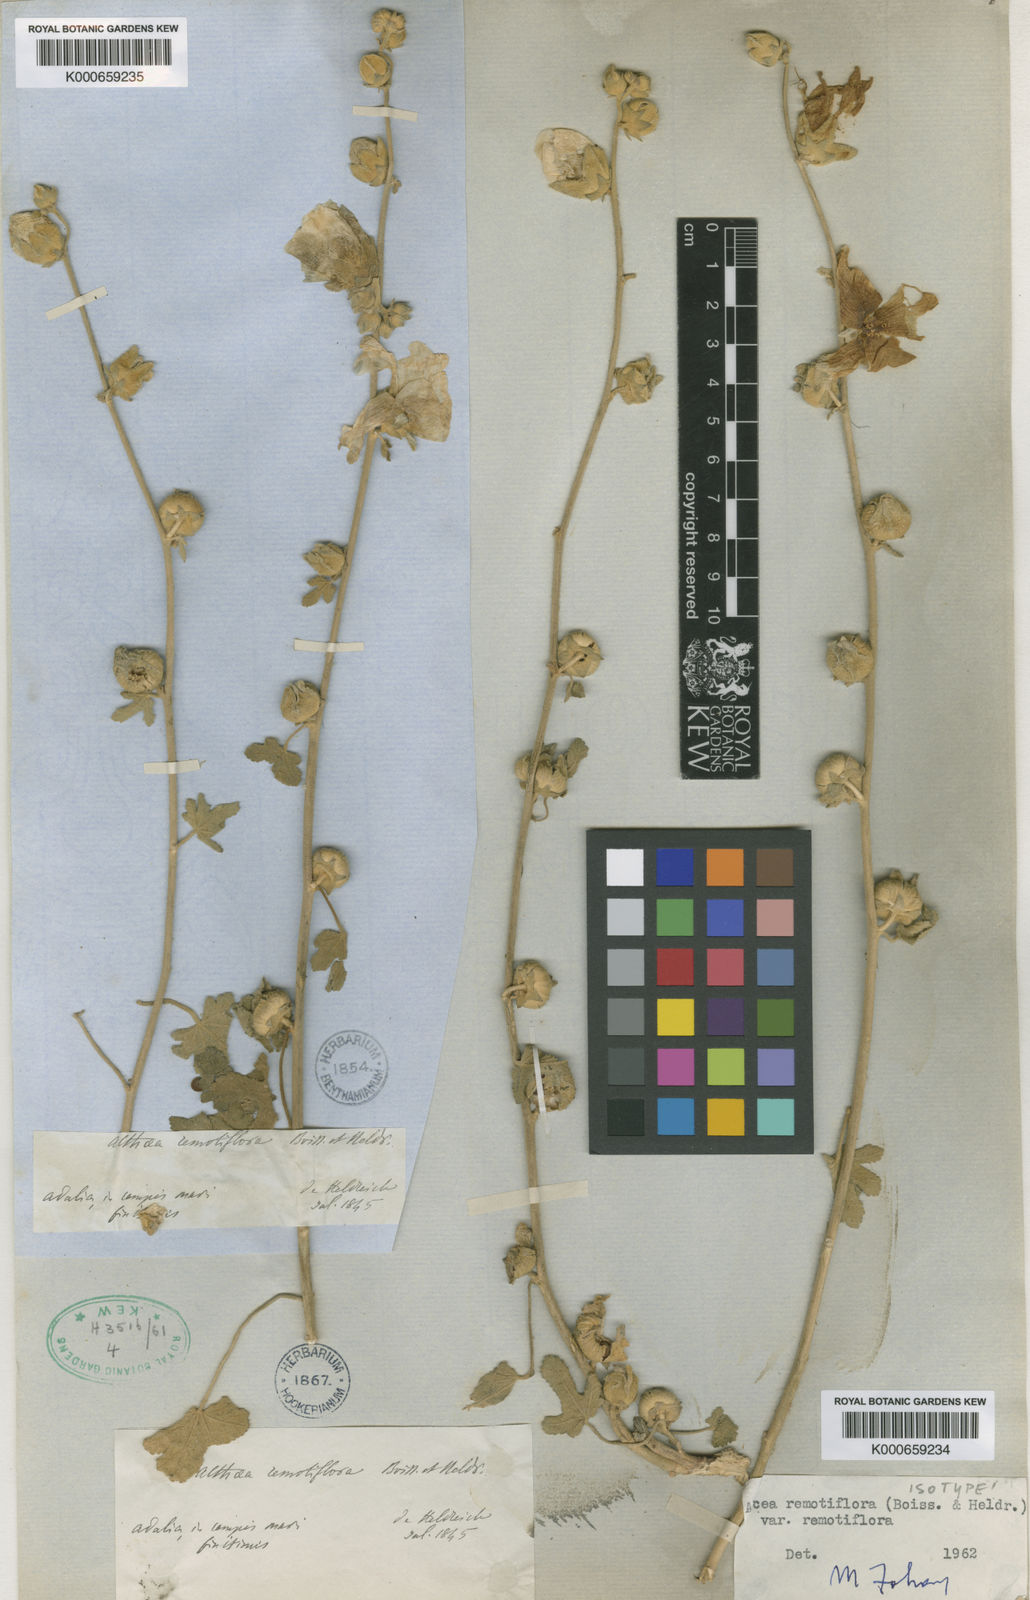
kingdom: Plantae
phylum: Tracheophyta
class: Magnoliopsida
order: Malvales
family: Malvaceae
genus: Alcea
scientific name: Alcea remotiflora
